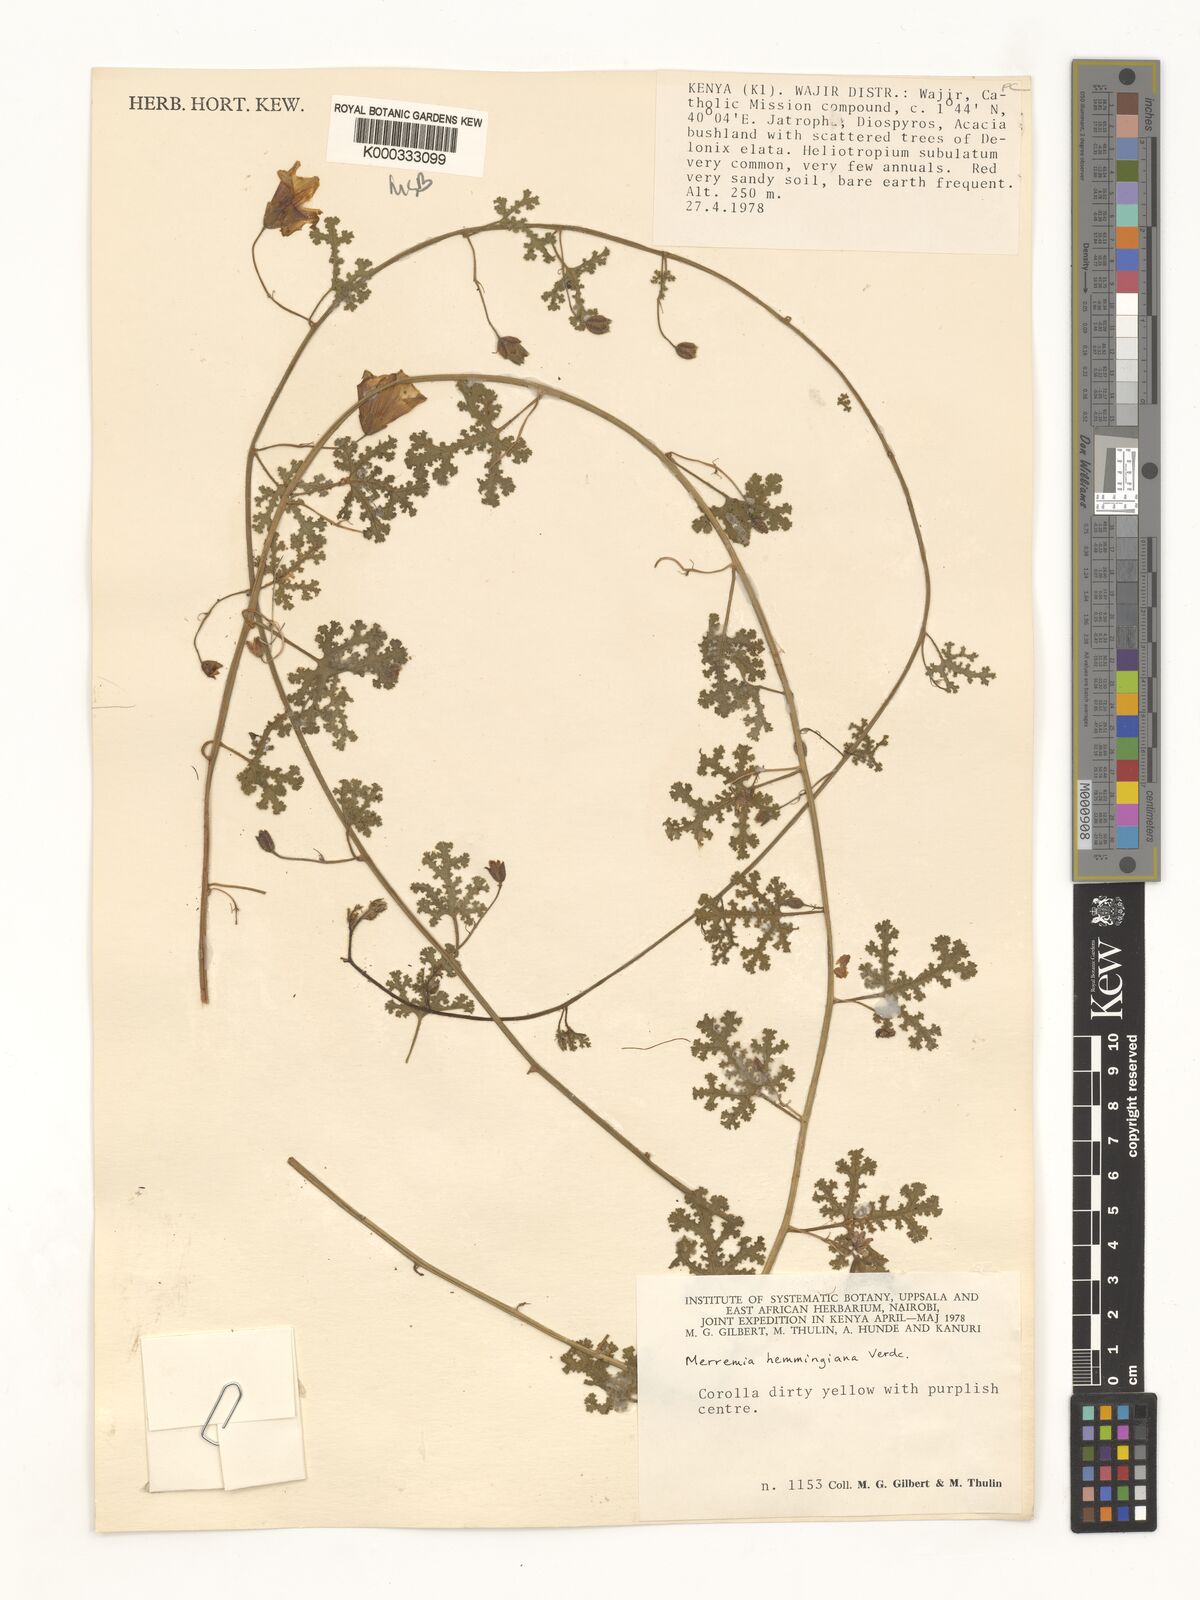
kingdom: Plantae
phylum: Tracheophyta
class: Magnoliopsida
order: Solanales
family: Convolvulaceae
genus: Merremia
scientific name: Merremia hemmingiana
